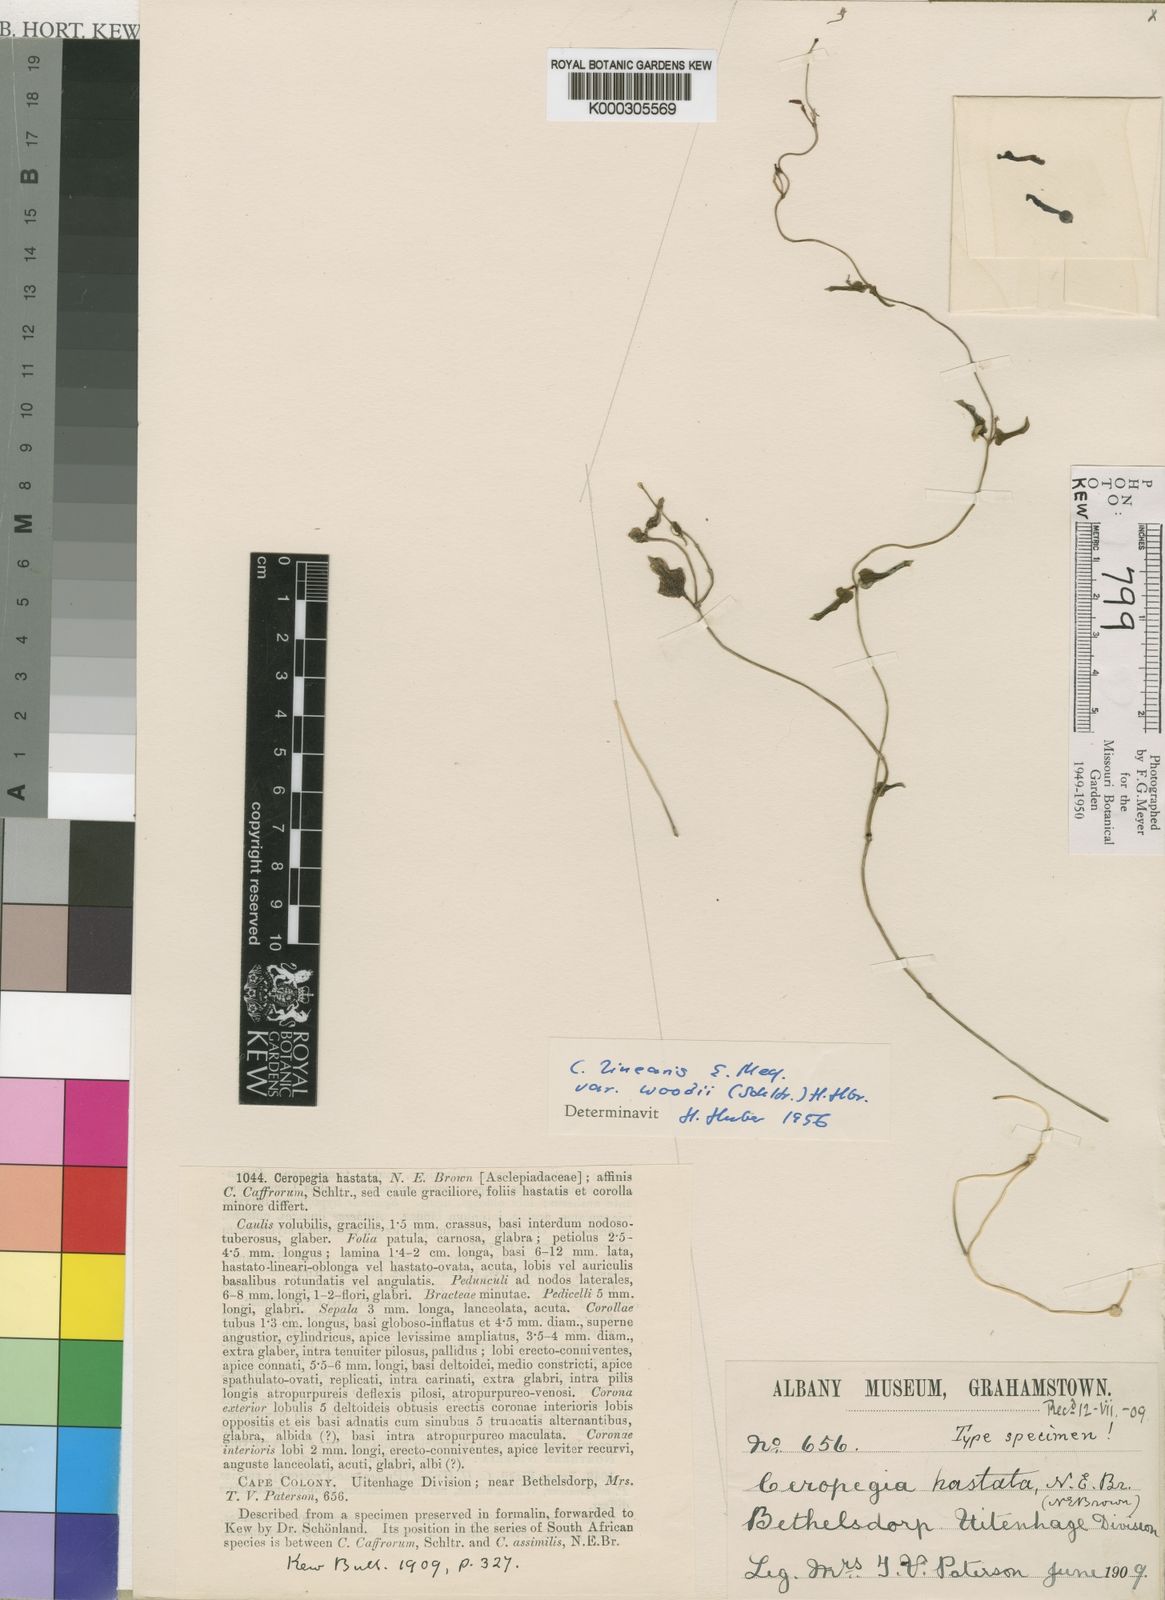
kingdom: Plantae
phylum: Tracheophyta
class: Magnoliopsida
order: Gentianales
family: Apocynaceae
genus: Ceropegia
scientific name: Ceropegia woodii
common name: Hearts entangled
